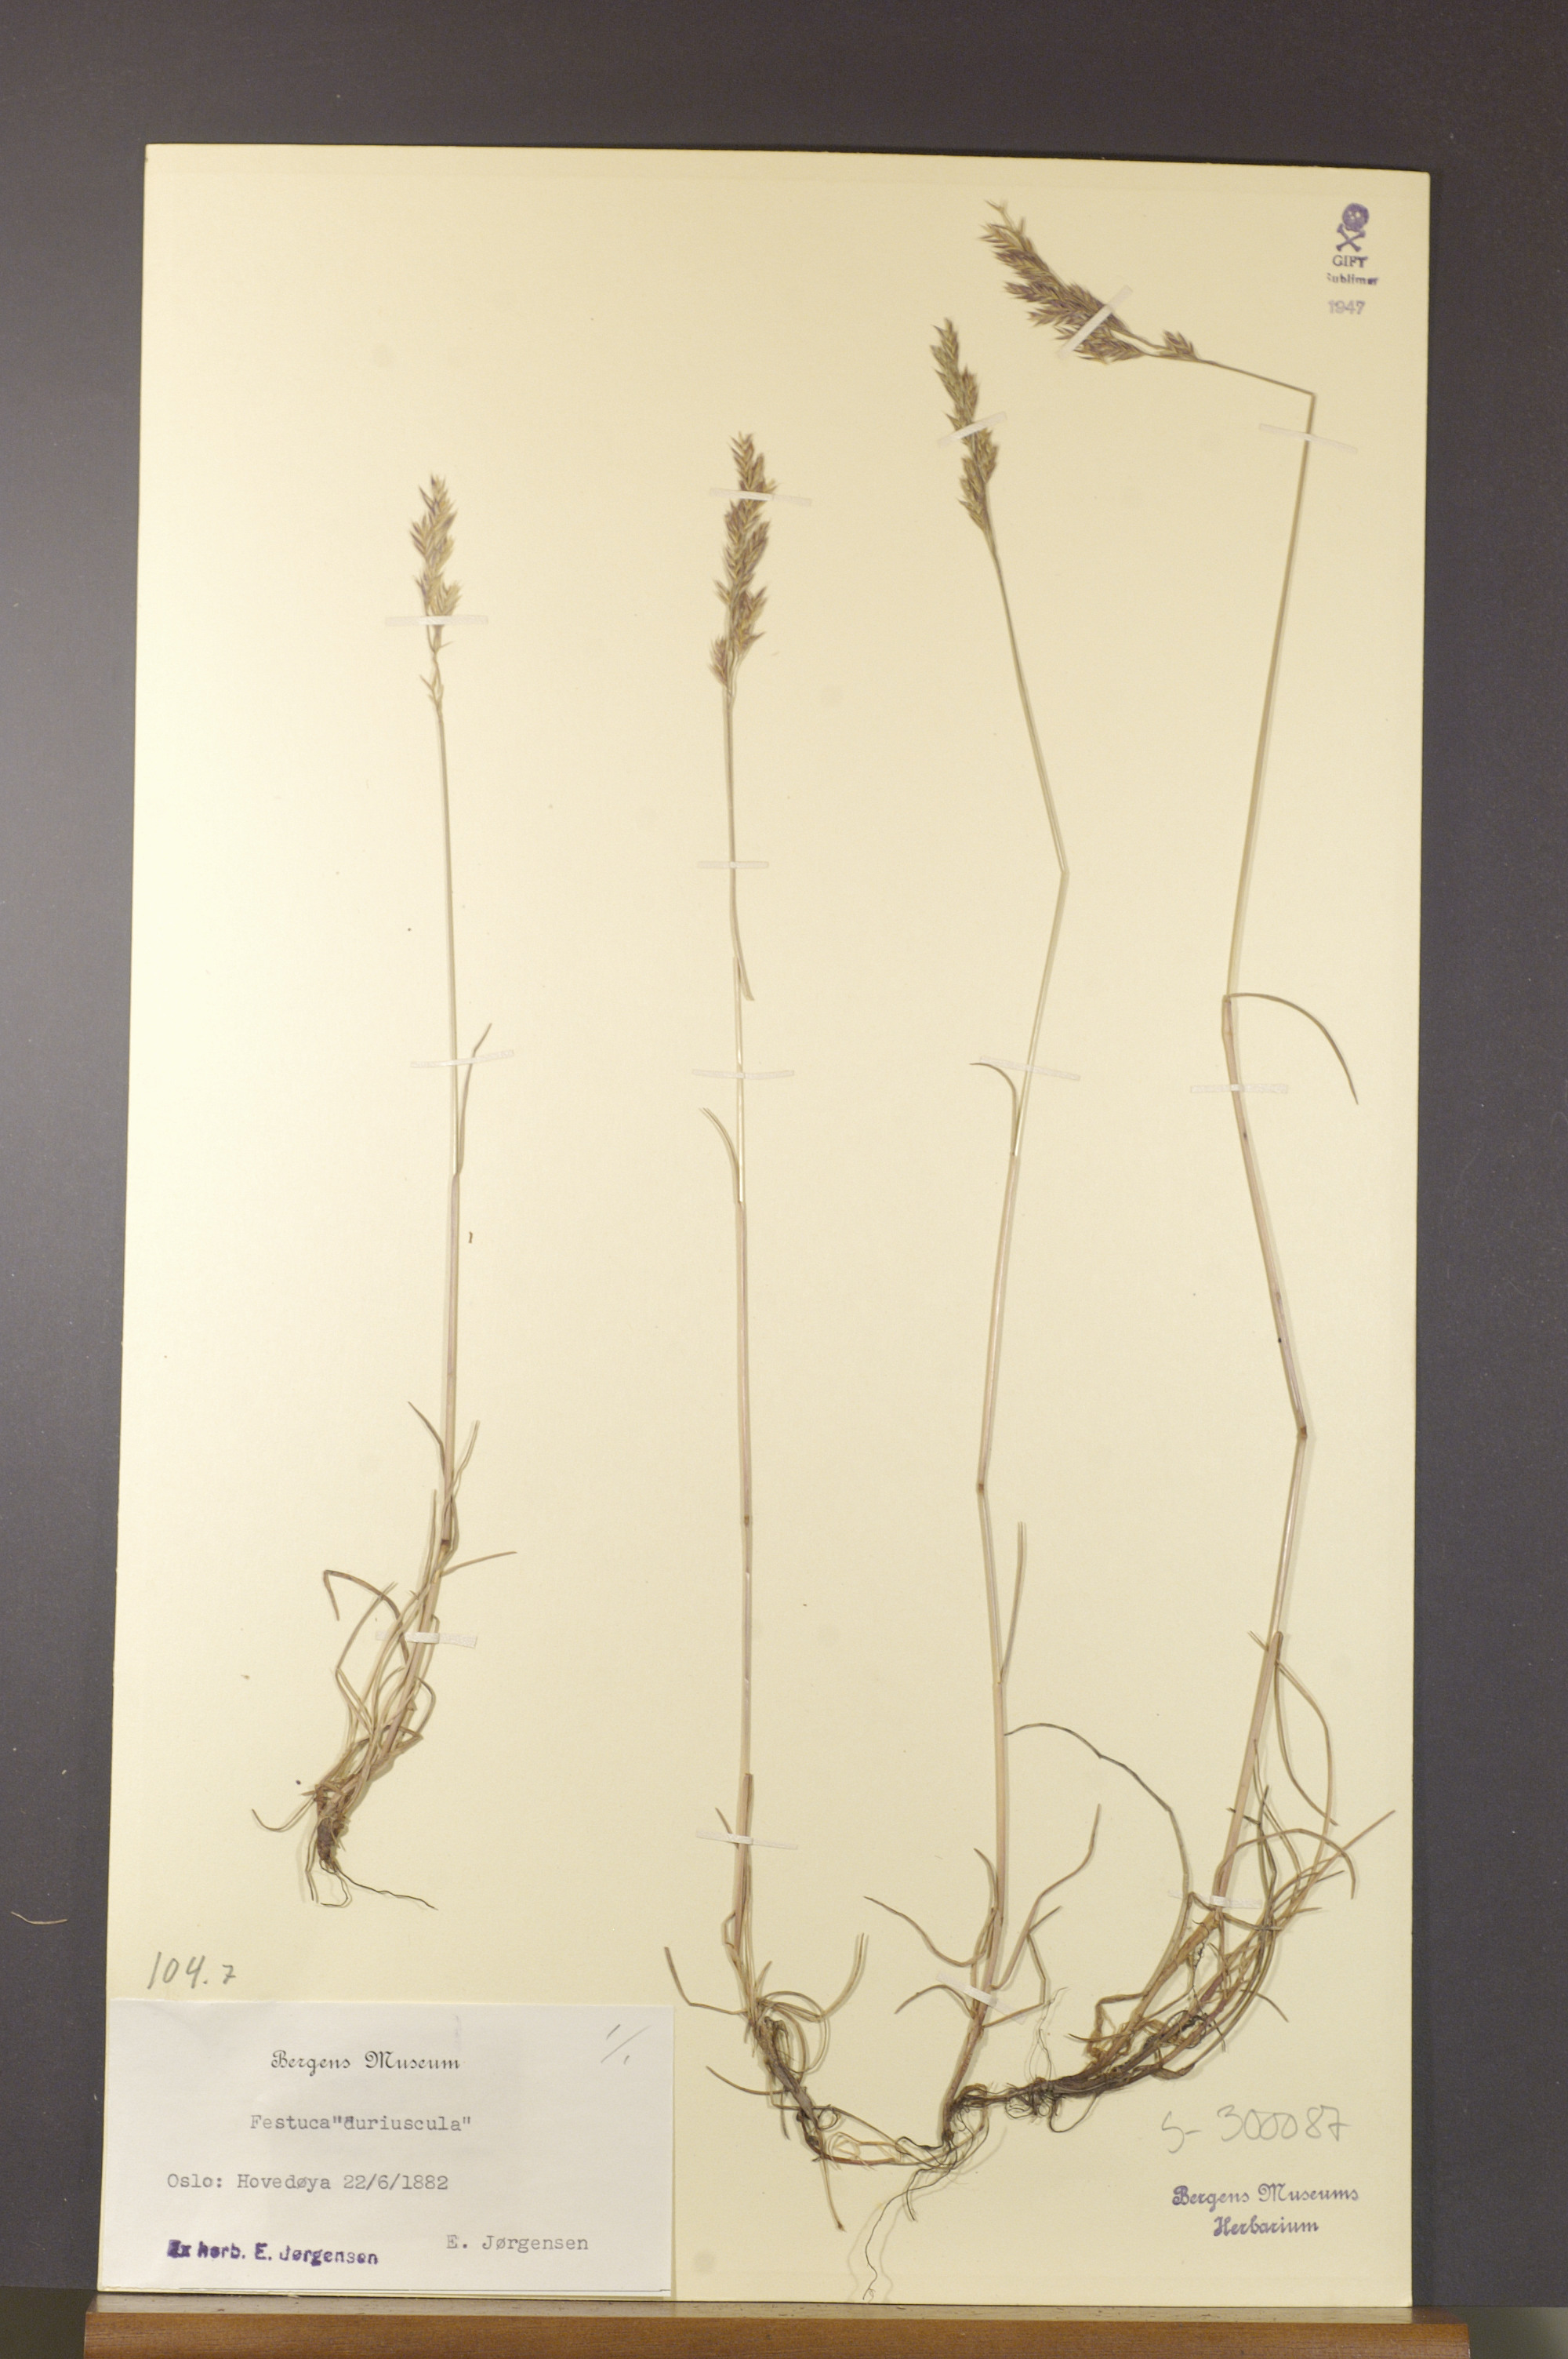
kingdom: Plantae
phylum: Tracheophyta
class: Liliopsida
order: Poales
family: Poaceae
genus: Festuca
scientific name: Festuca trachyphylla
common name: Hard fescue
